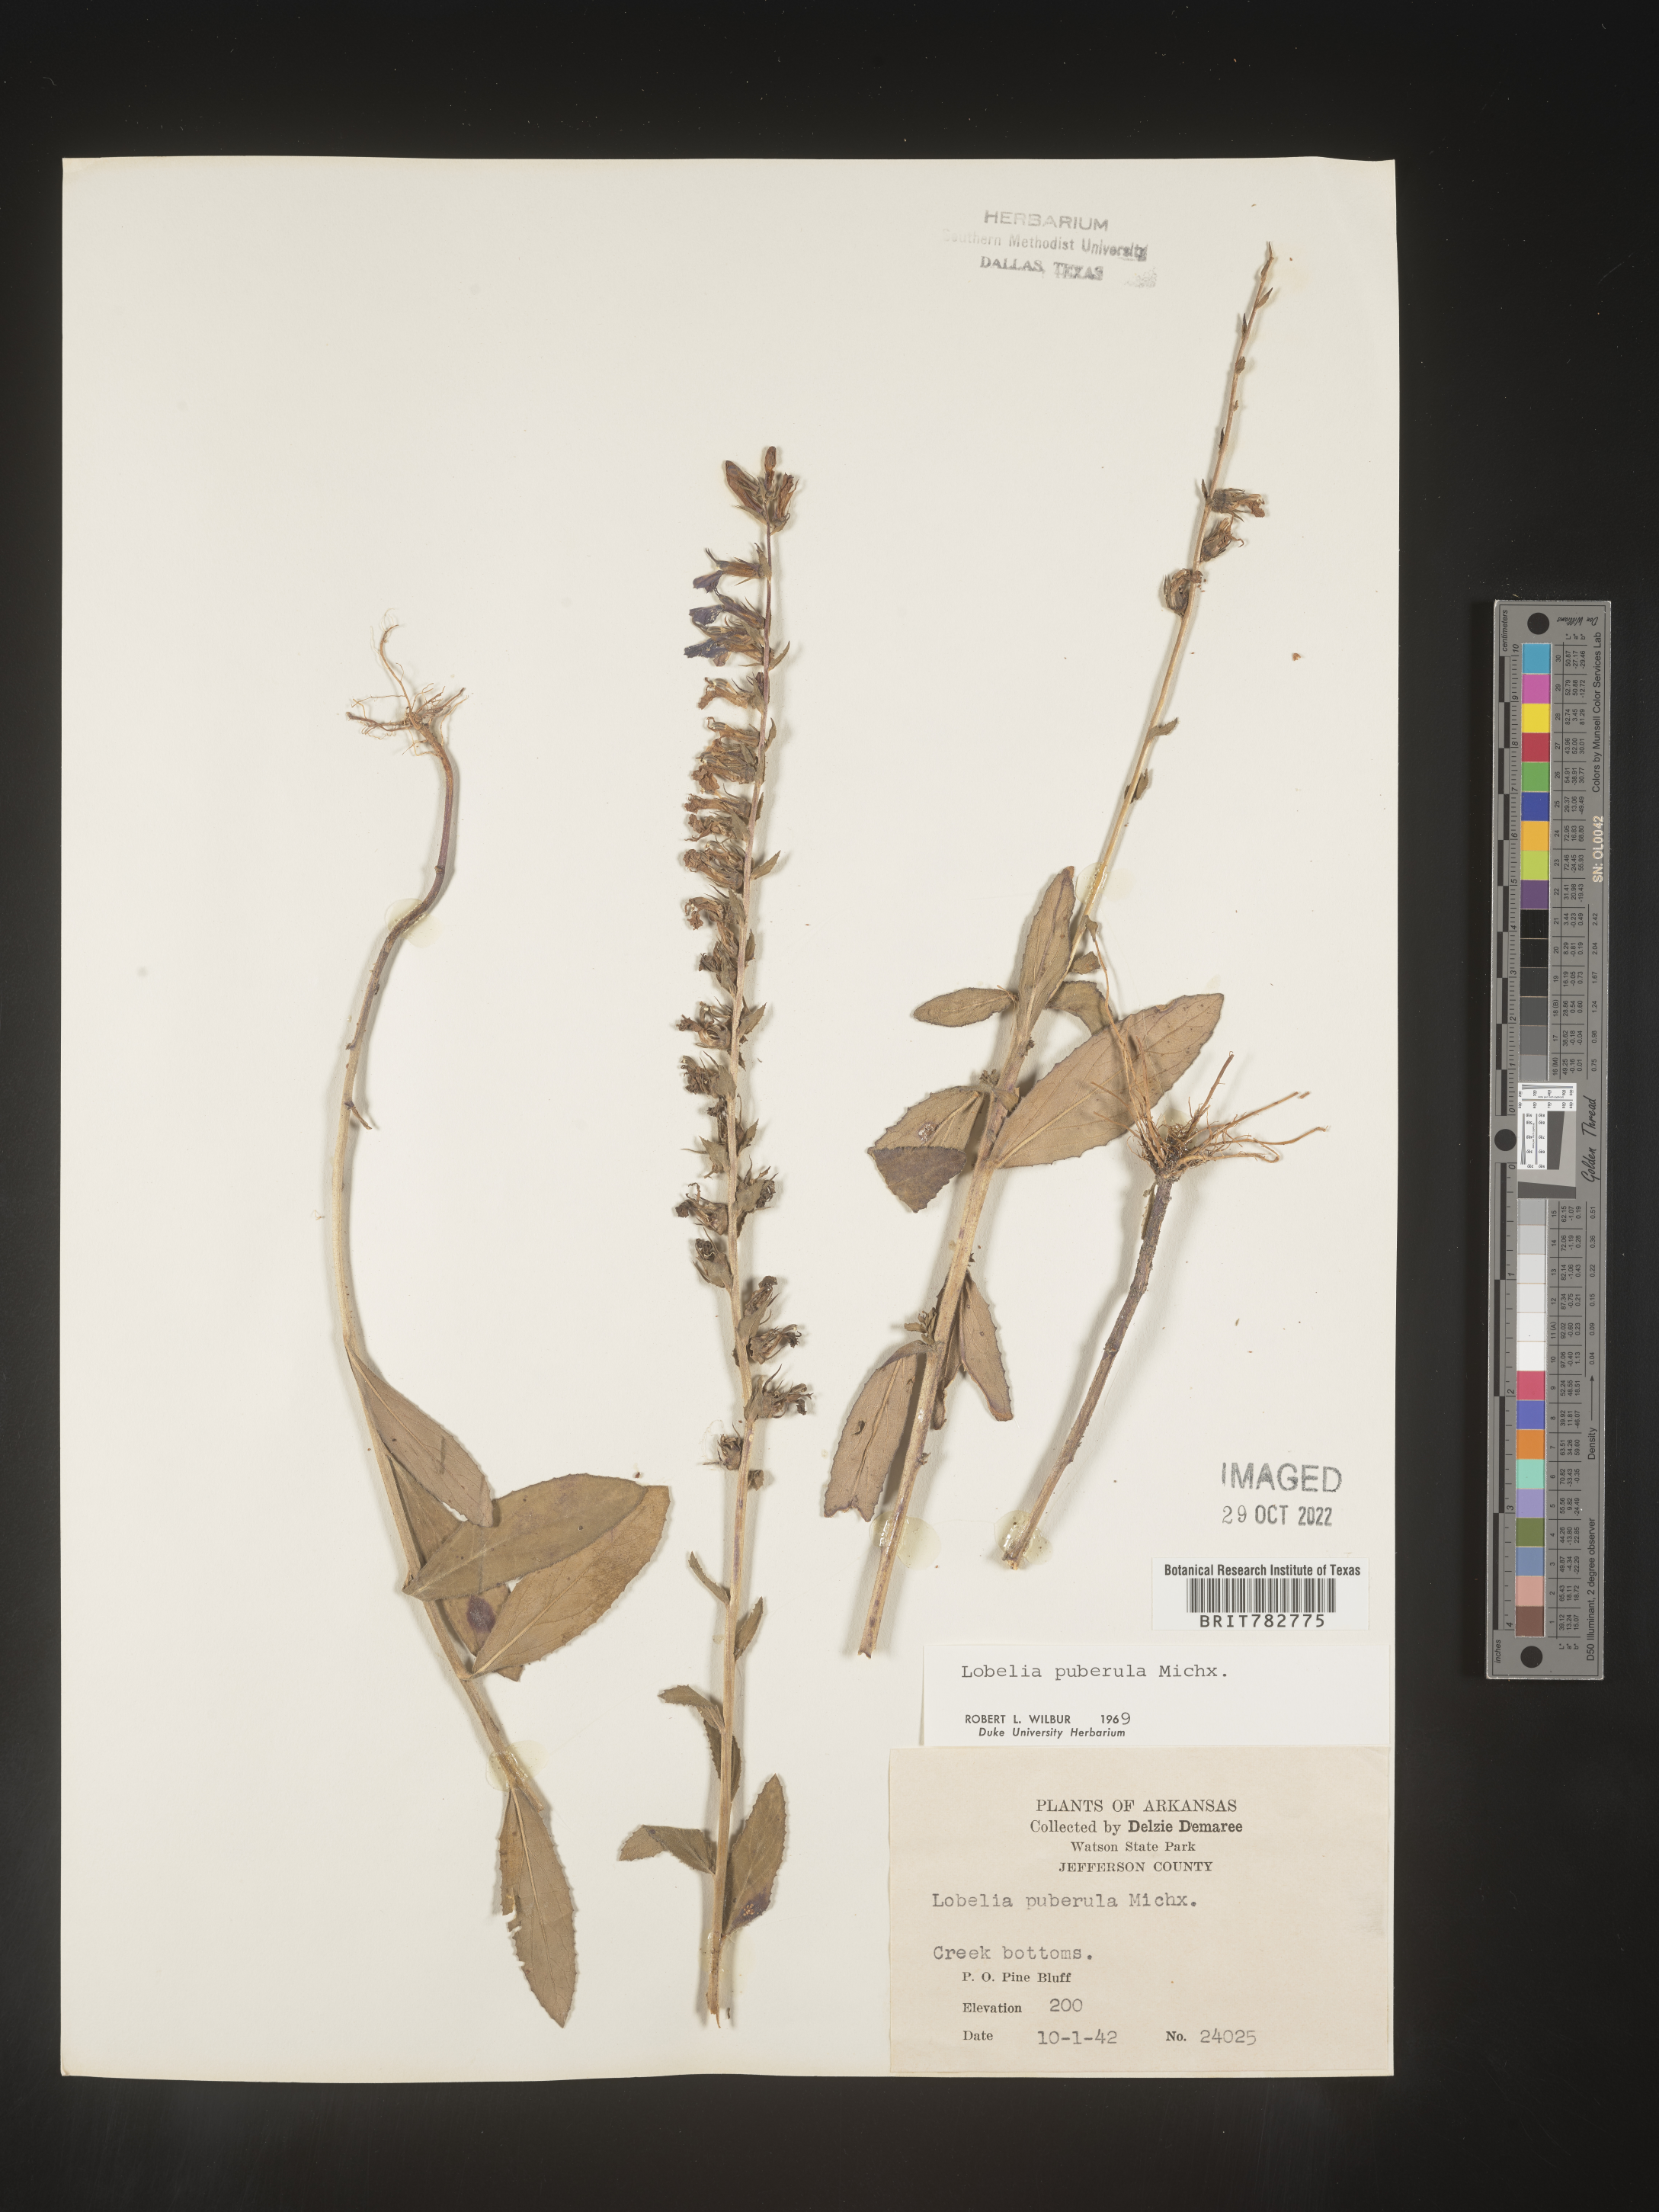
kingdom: Plantae
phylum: Tracheophyta
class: Magnoliopsida
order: Asterales
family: Campanulaceae
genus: Lobelia
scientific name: Lobelia puberula
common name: Purple dewdrop
